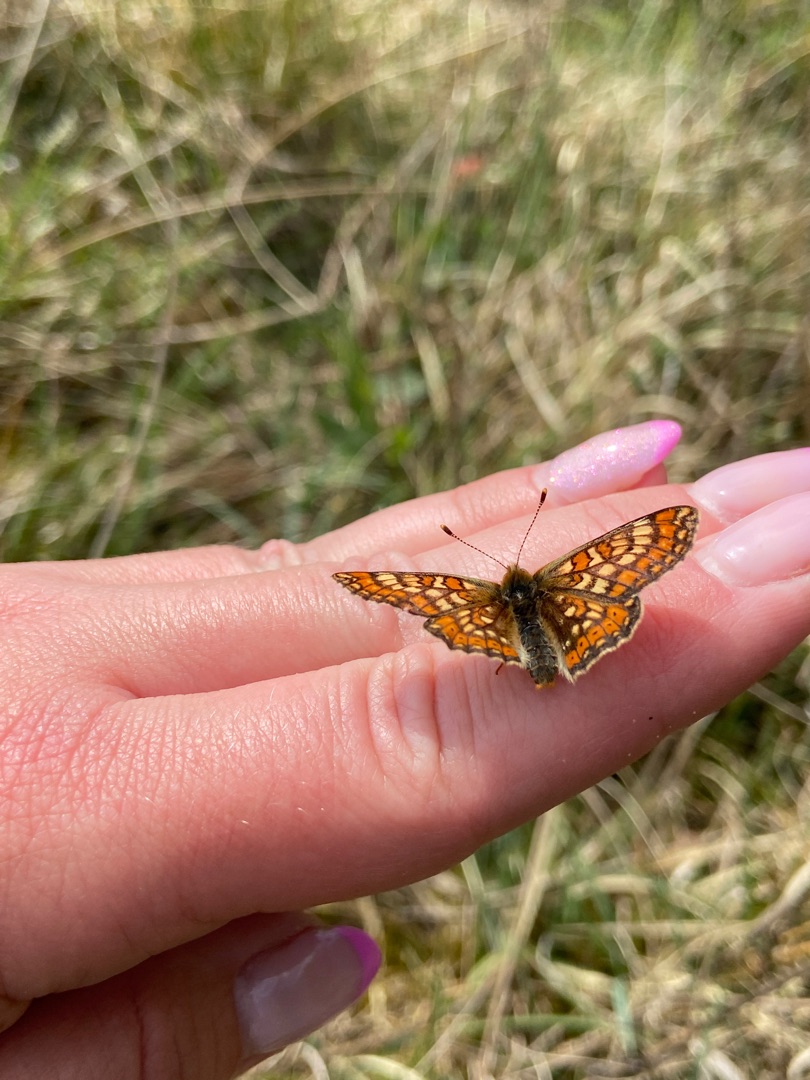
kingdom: Animalia
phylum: Arthropoda
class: Insecta
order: Lepidoptera
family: Nymphalidae
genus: Euphydryas
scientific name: Euphydryas aurinia
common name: Hedepletvinge
